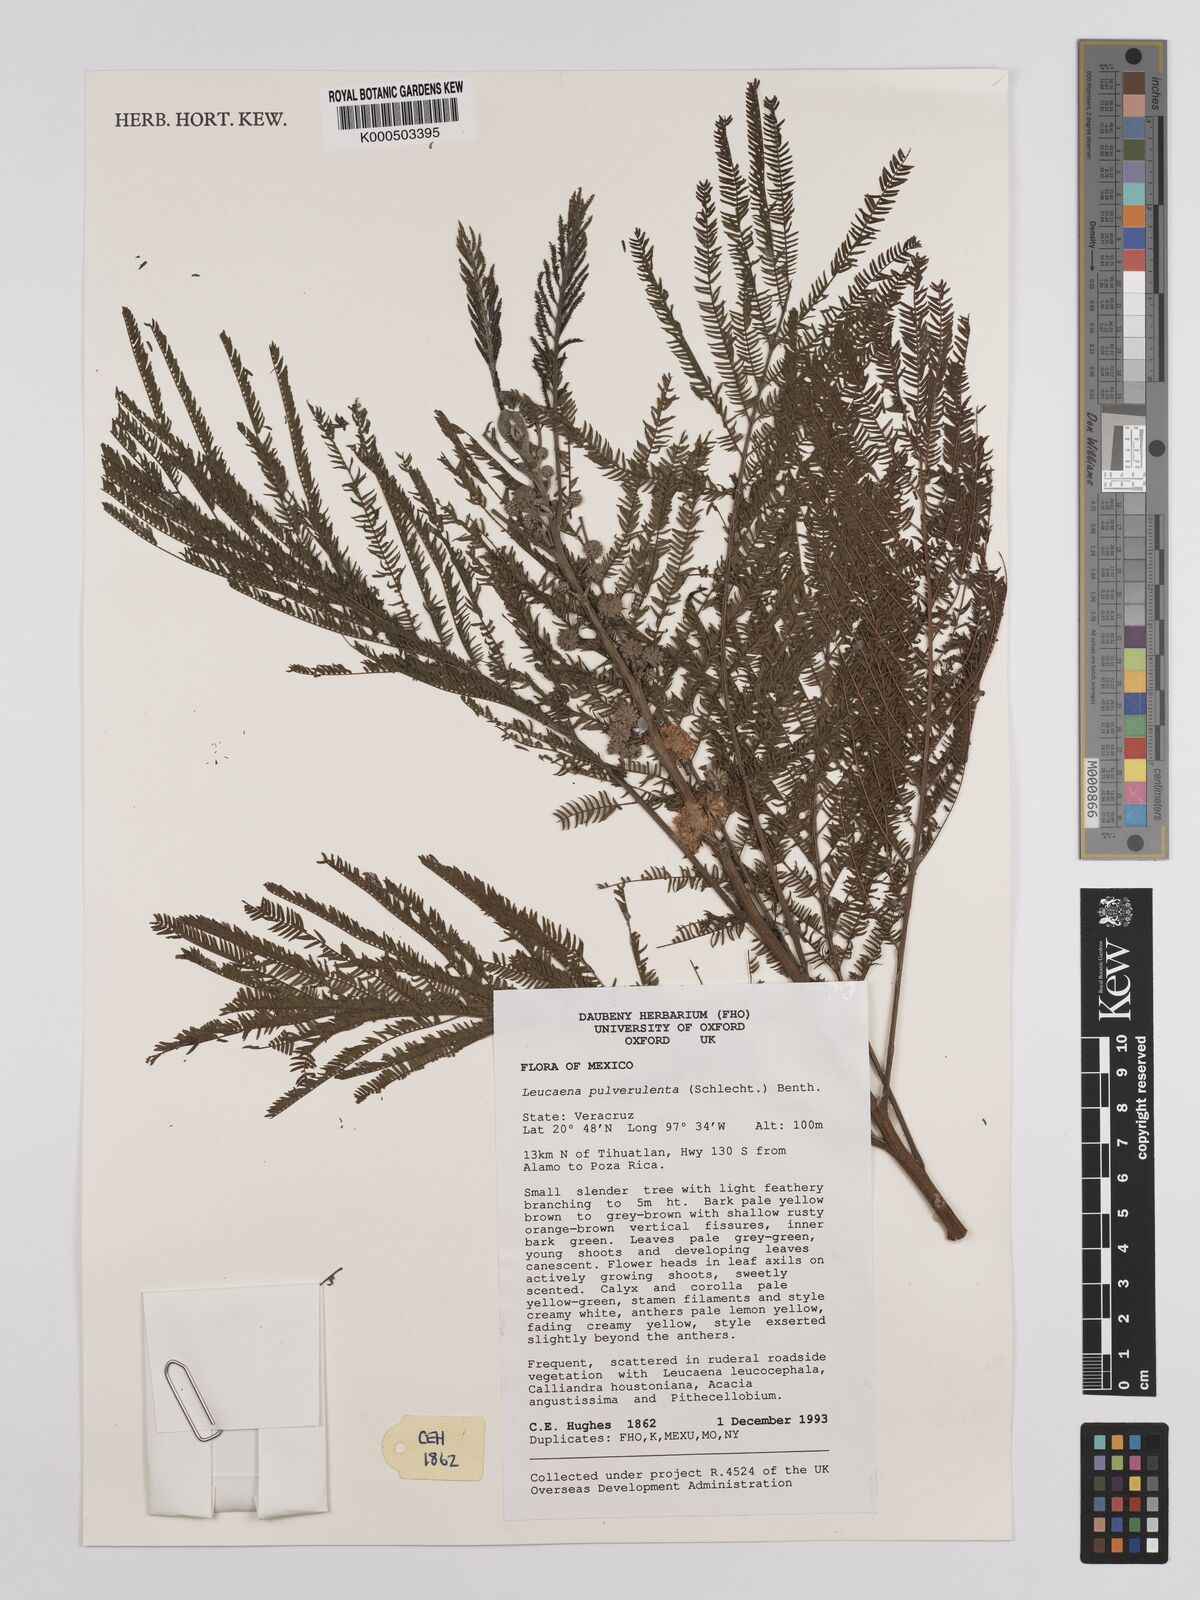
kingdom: Plantae
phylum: Tracheophyta
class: Magnoliopsida
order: Fabales
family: Fabaceae
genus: Leucaena
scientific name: Leucaena pulverulenta
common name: Great leadtree
